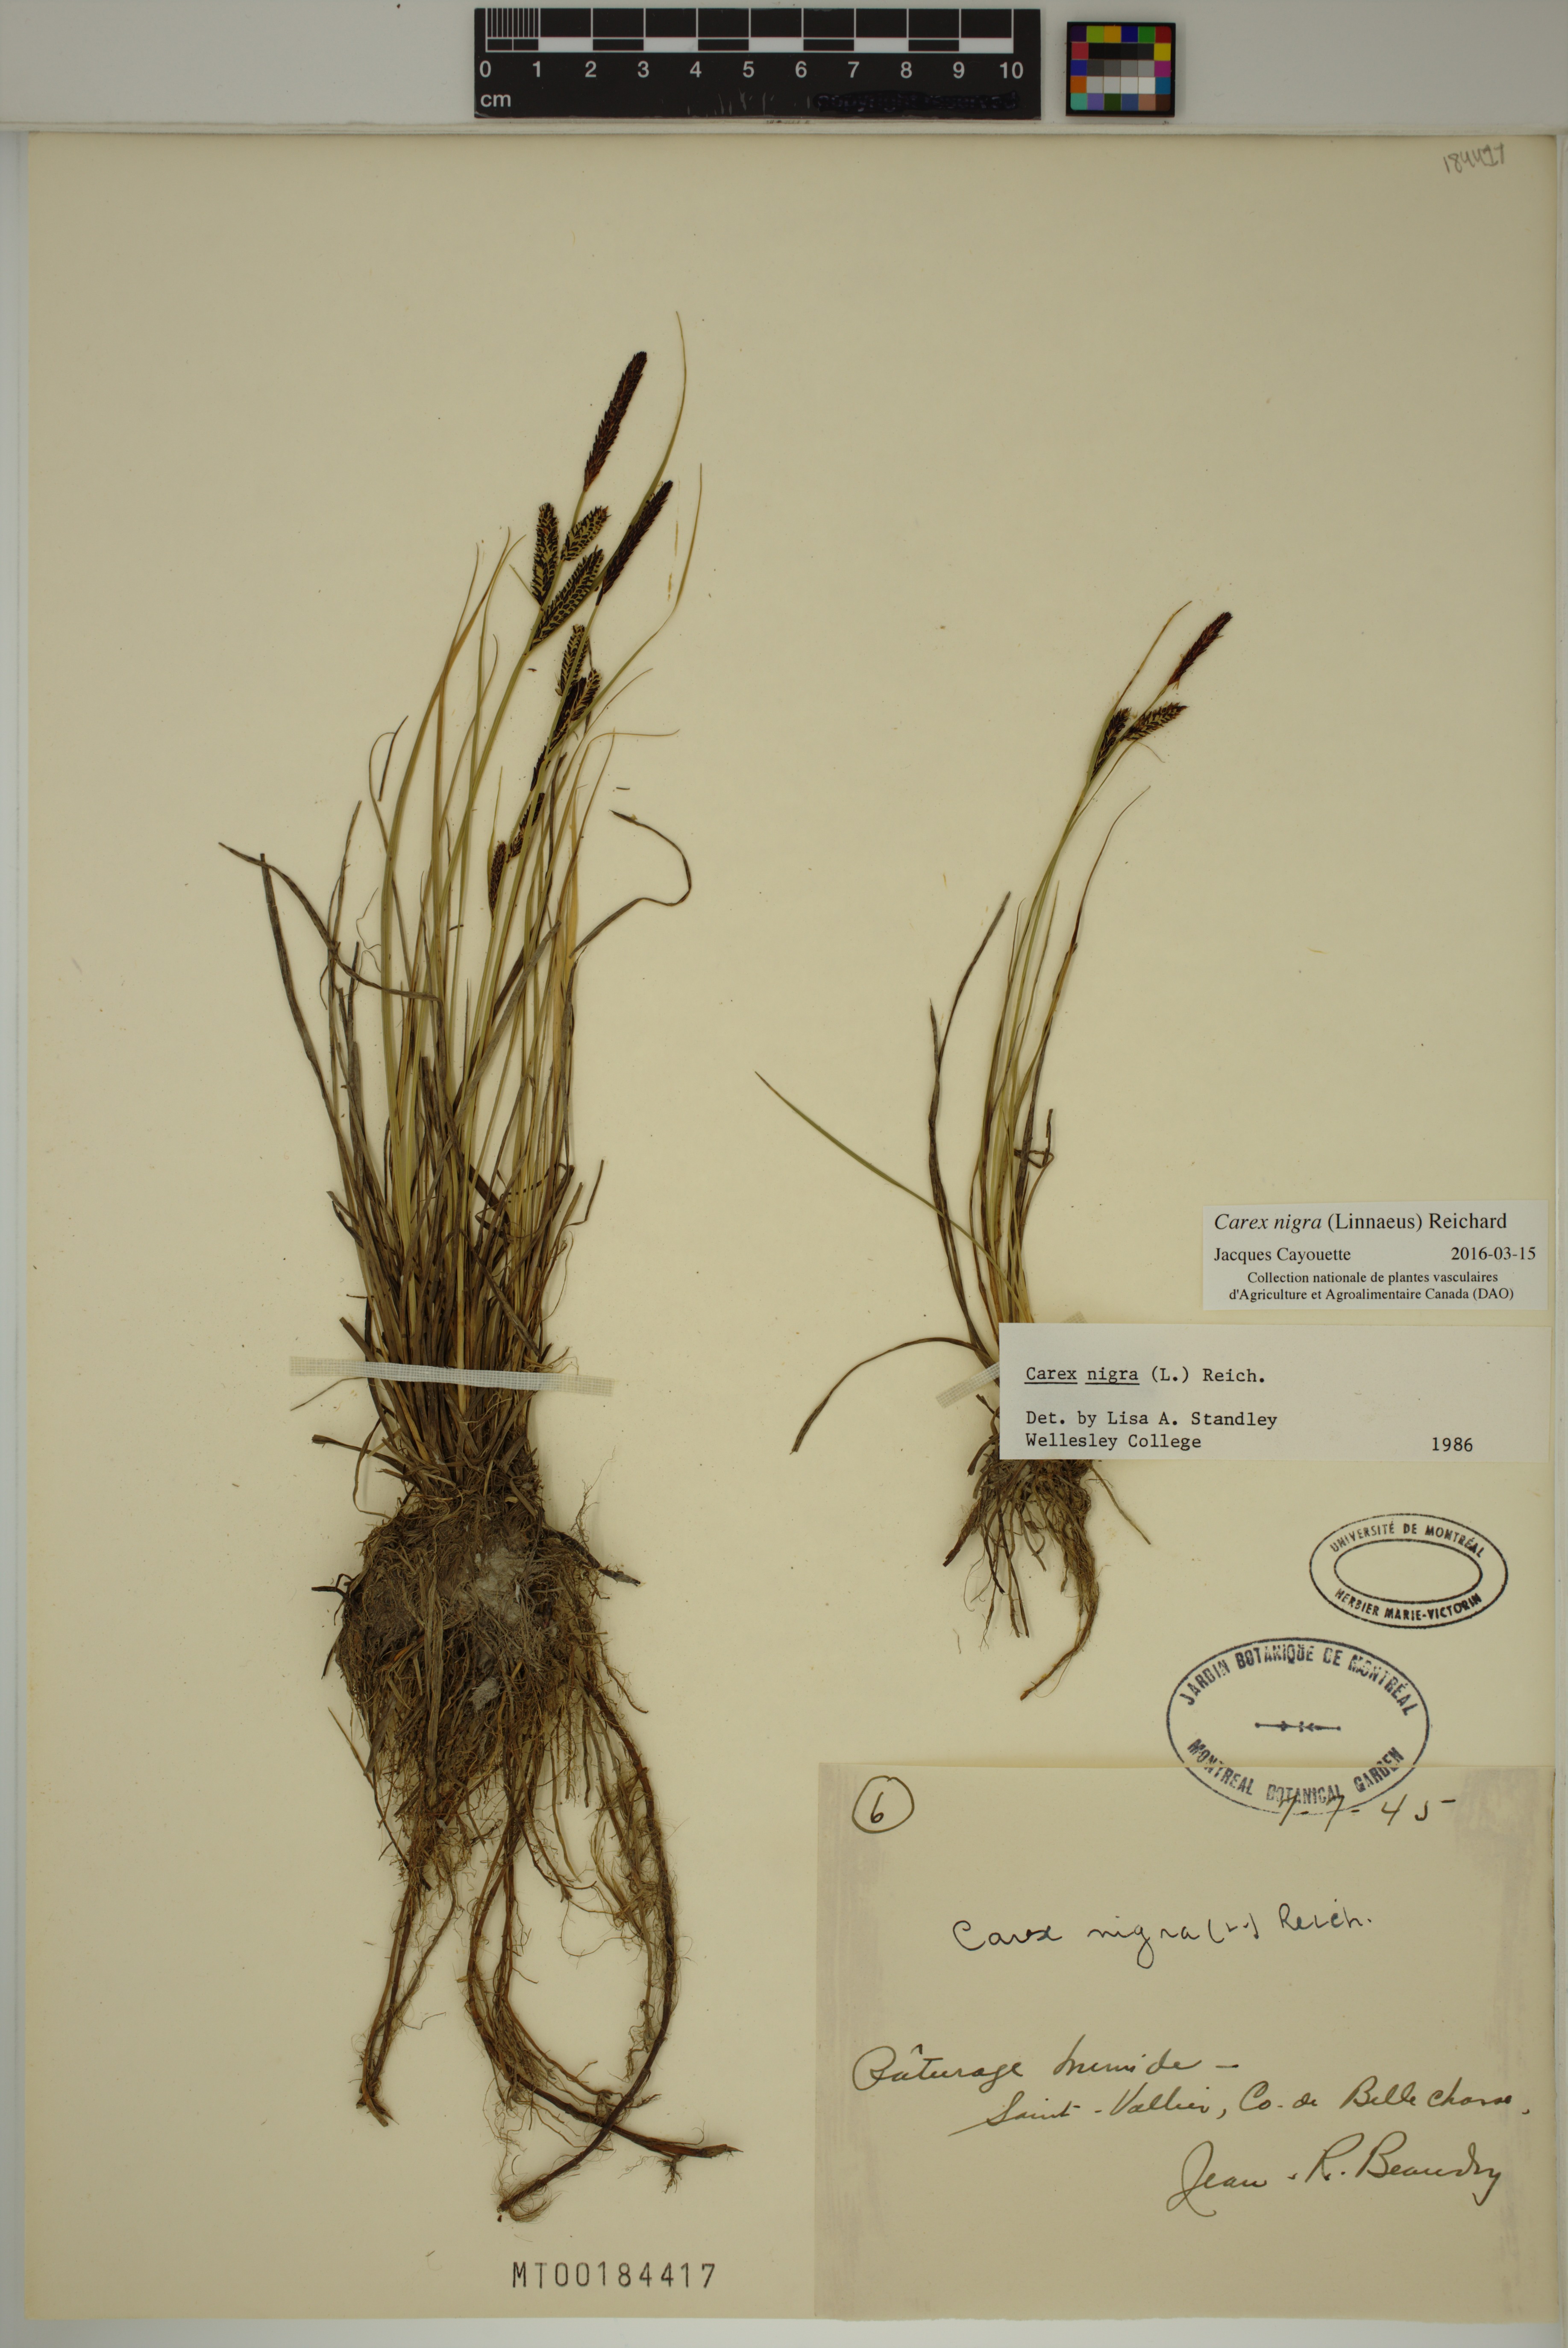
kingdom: Plantae
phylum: Tracheophyta
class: Liliopsida
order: Poales
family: Cyperaceae
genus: Carex
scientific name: Carex nigra
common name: Common sedge
